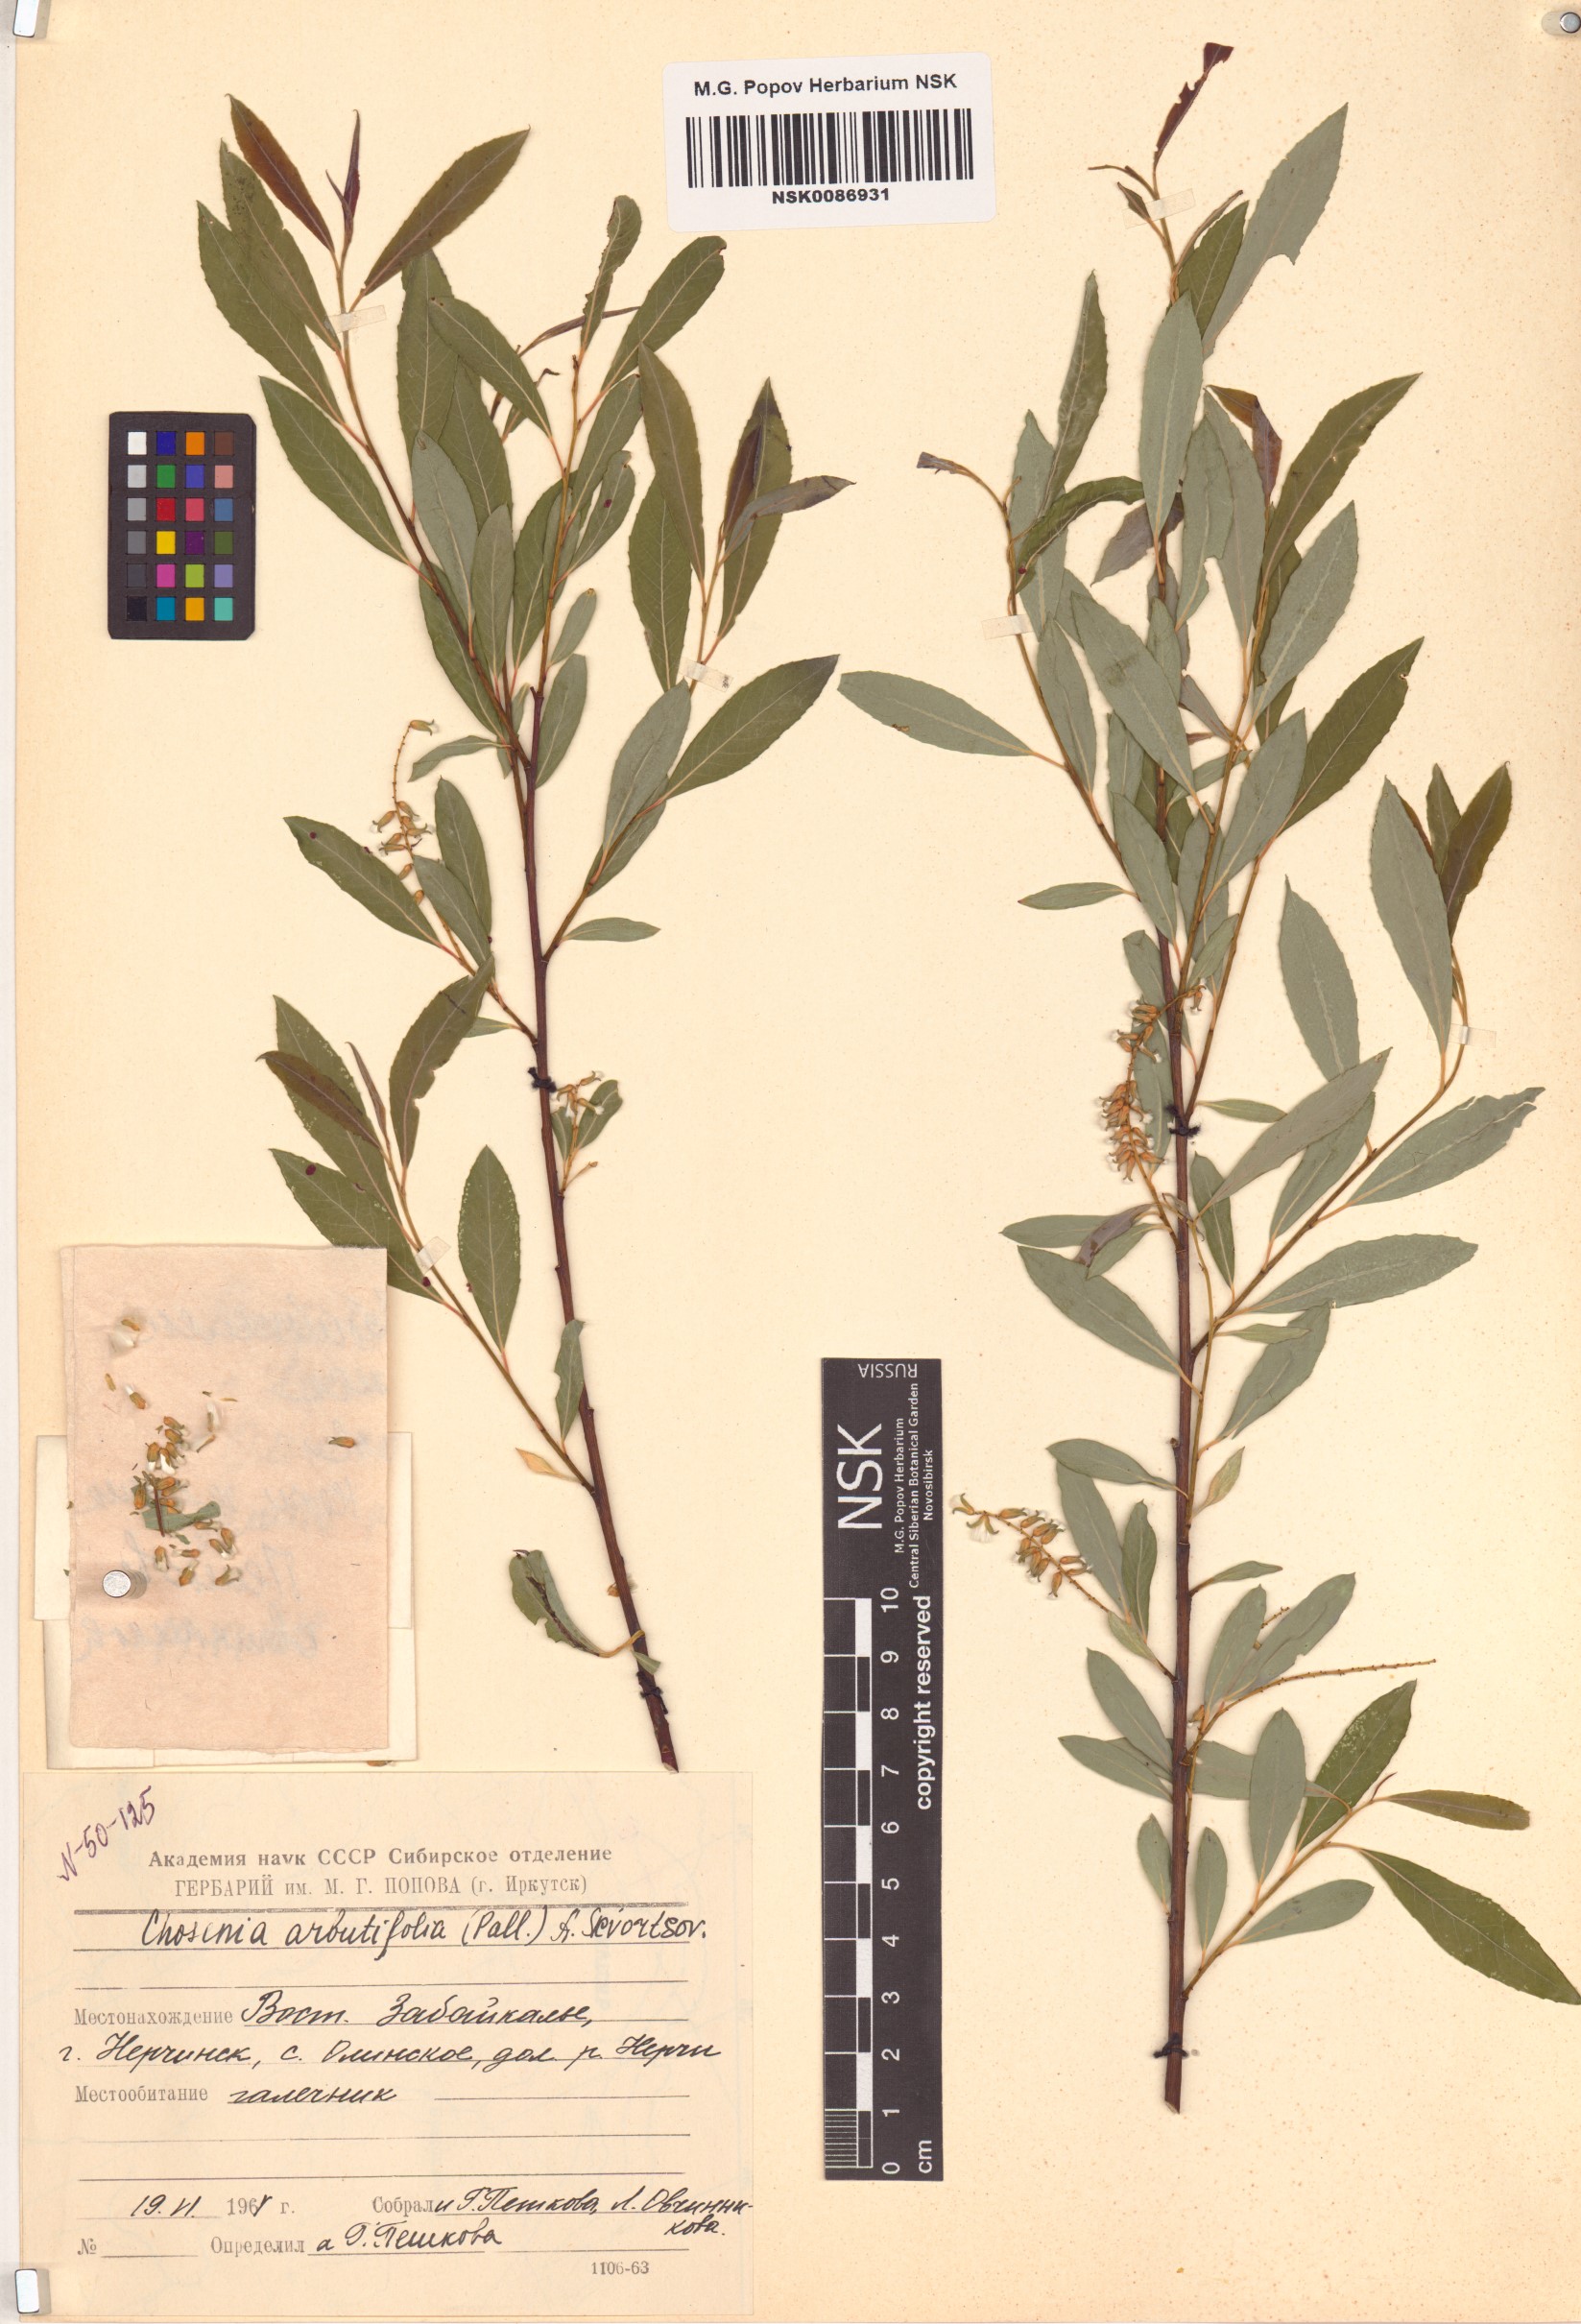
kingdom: Plantae
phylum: Tracheophyta
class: Magnoliopsida
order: Malpighiales
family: Salicaceae
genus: Chosenia
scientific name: Chosenia arbutifolia
